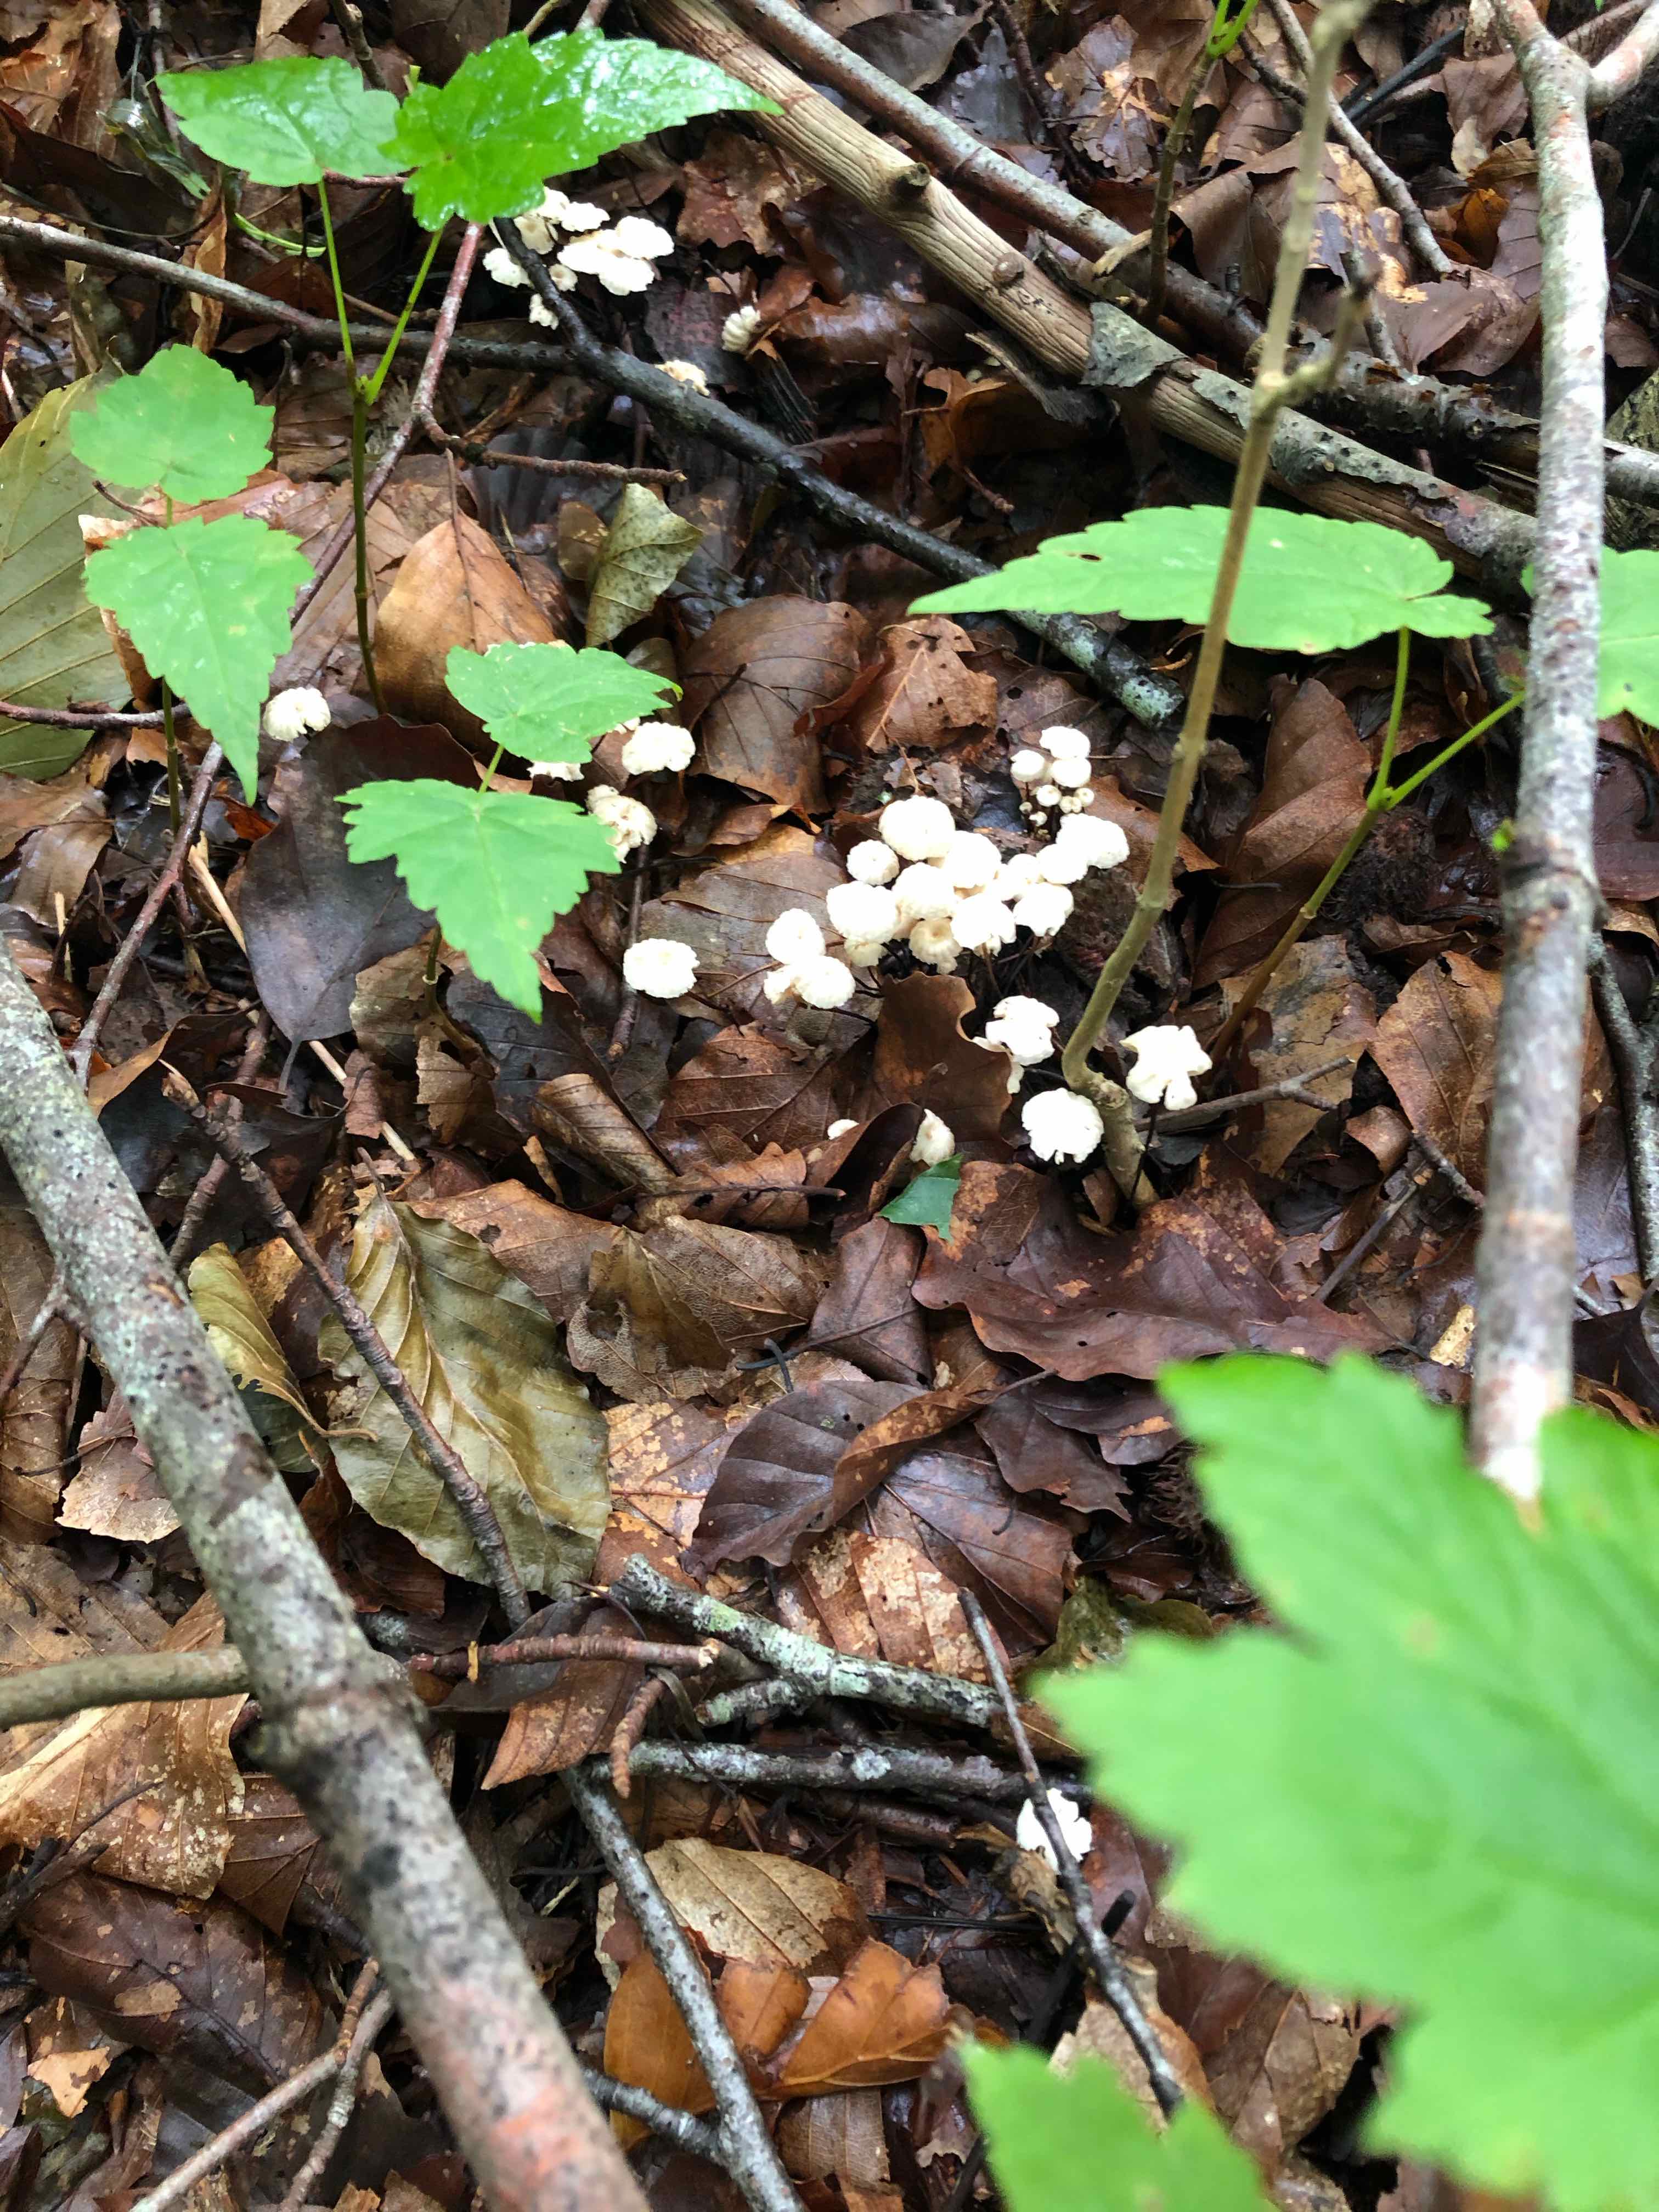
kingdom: Fungi
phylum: Basidiomycota
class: Agaricomycetes
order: Agaricales
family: Marasmiaceae
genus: Marasmius
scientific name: Marasmius rotula
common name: hjul-bruskhat
